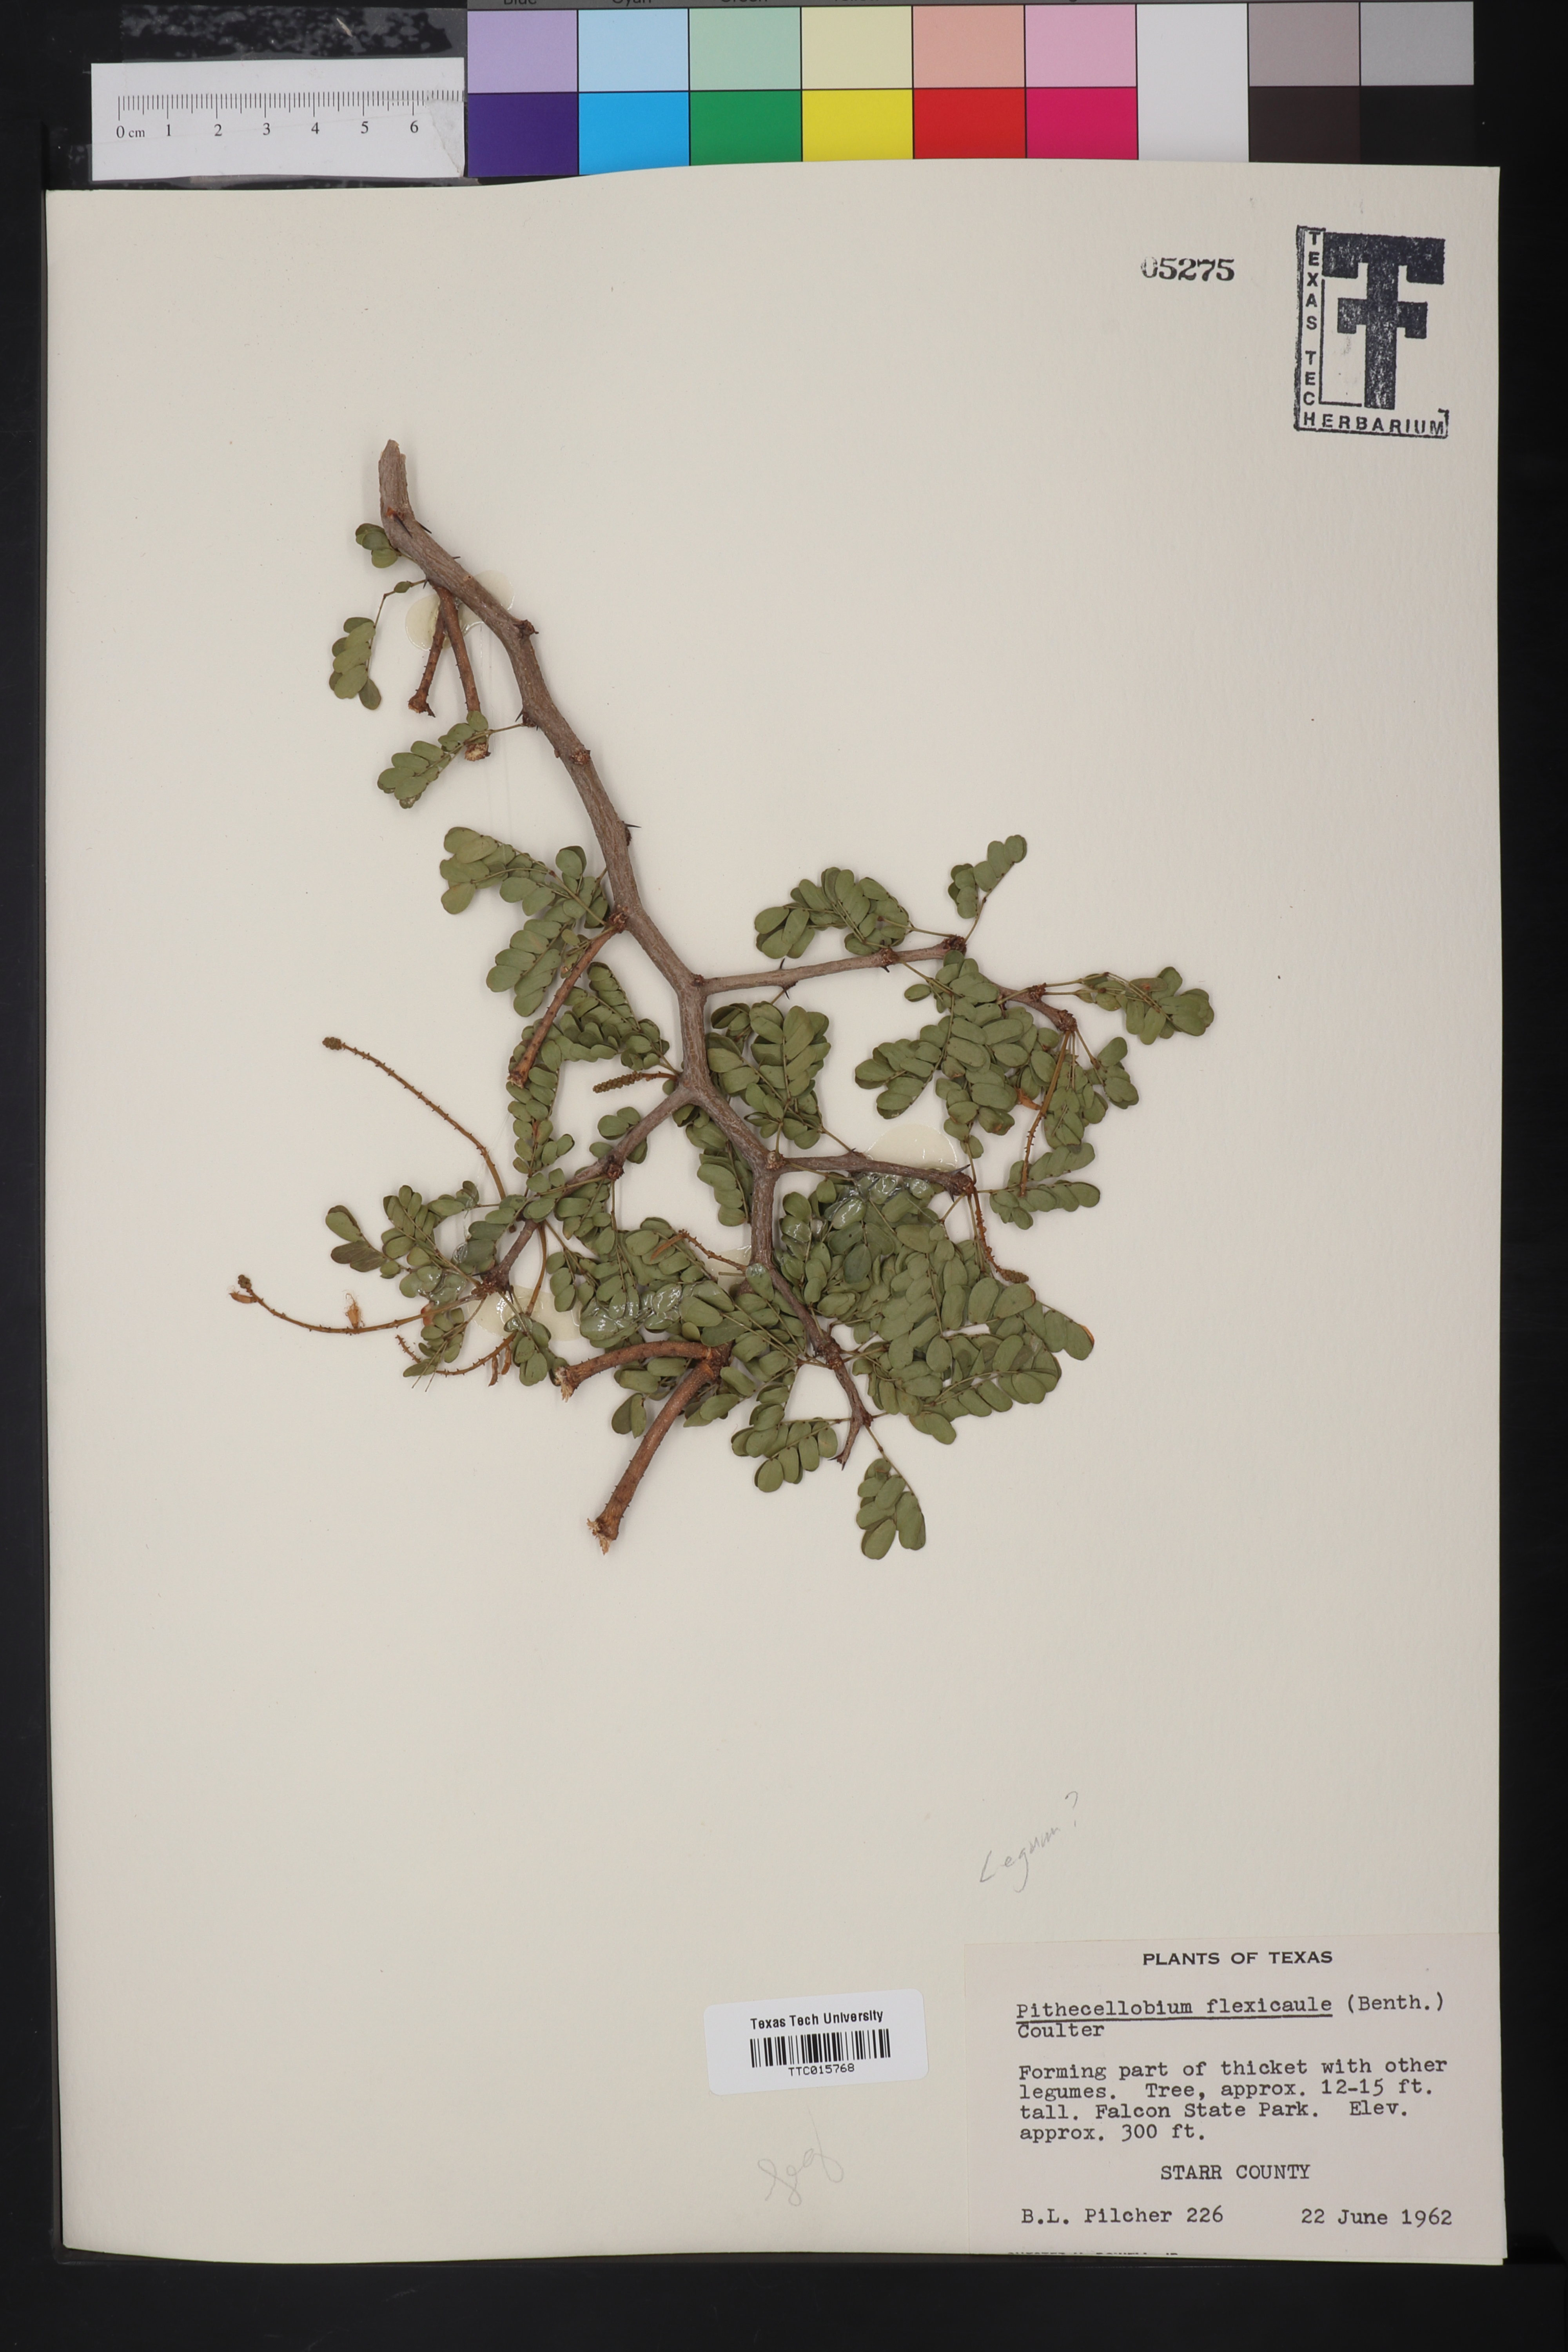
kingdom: Plantae
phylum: Tracheophyta
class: Magnoliopsida
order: Fabales
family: Fabaceae
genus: Ebenopsis
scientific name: Ebenopsis ebano
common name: Ebony blackbead
